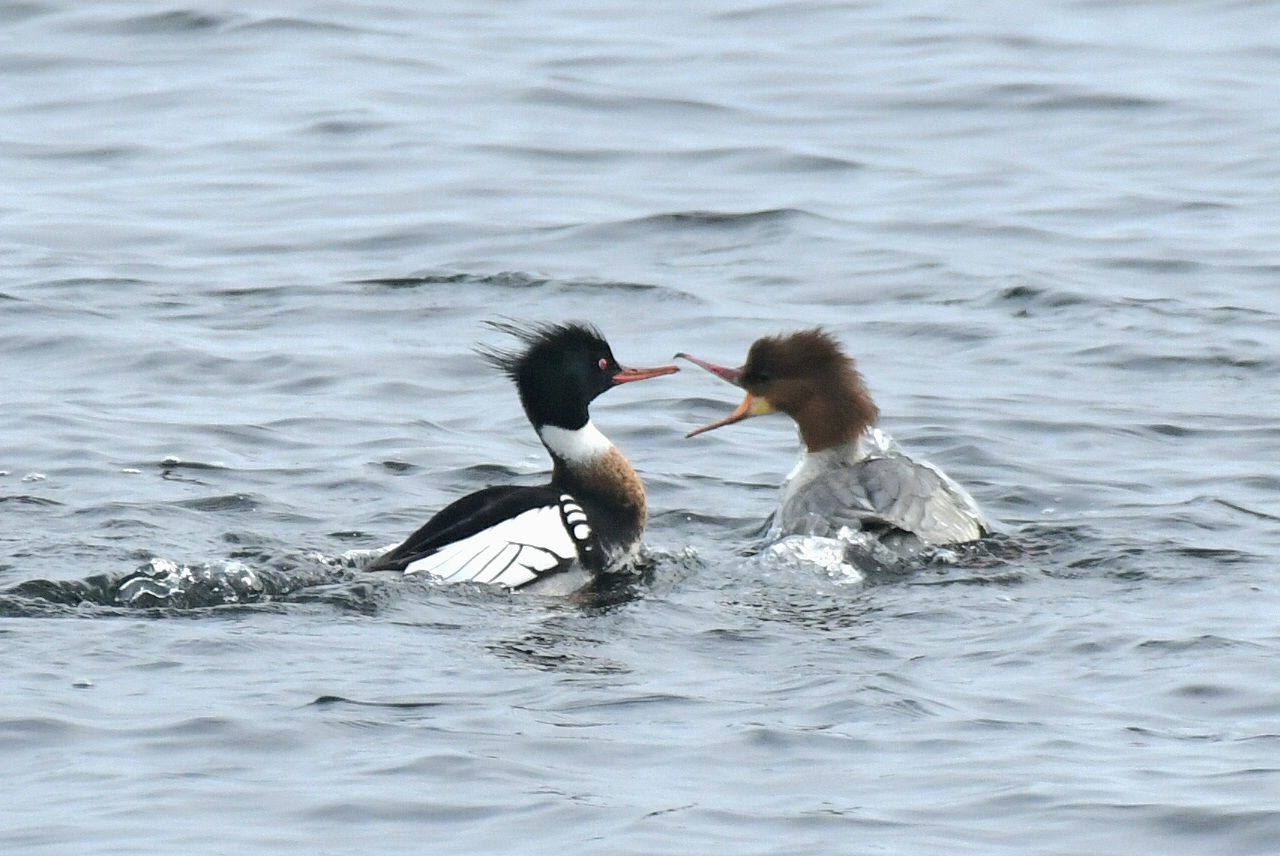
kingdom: Animalia
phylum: Chordata
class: Aves
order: Anseriformes
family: Anatidae
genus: Mergus
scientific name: Mergus serrator
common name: Red-breasted merganser
